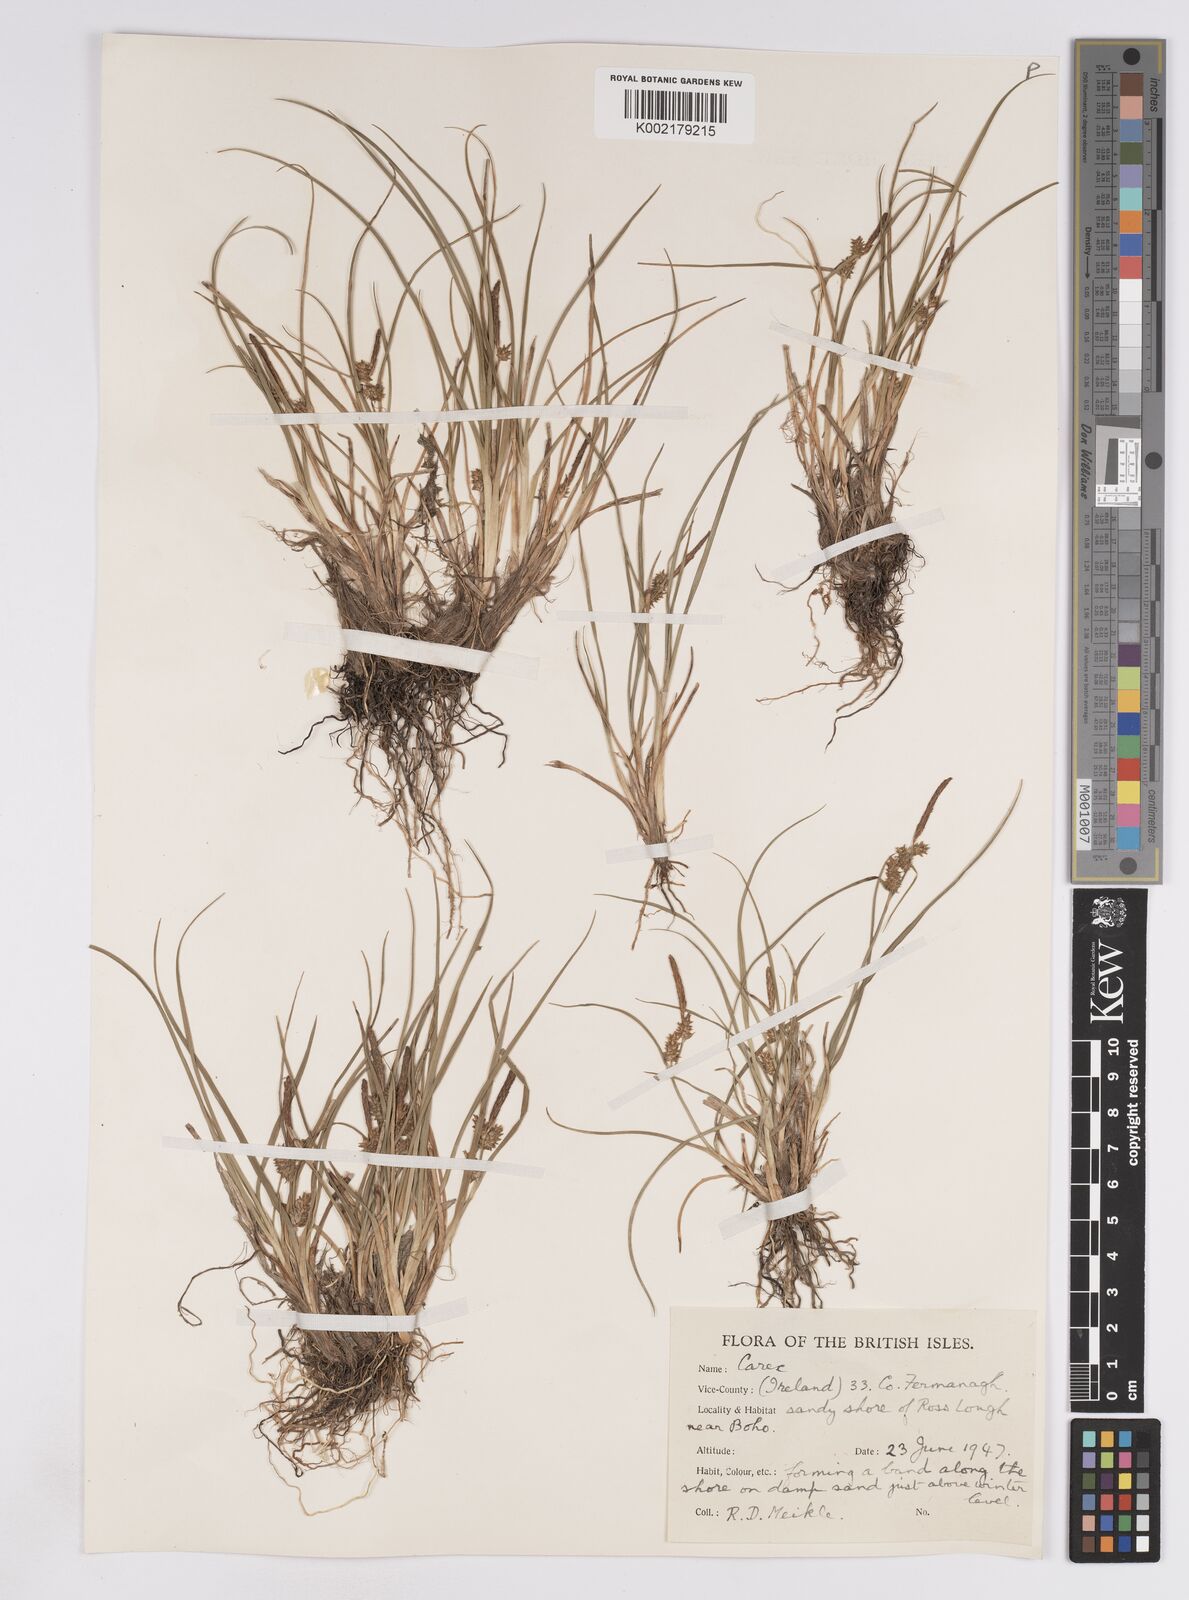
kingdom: Plantae
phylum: Tracheophyta
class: Liliopsida
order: Poales
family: Cyperaceae
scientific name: Cyperaceae
